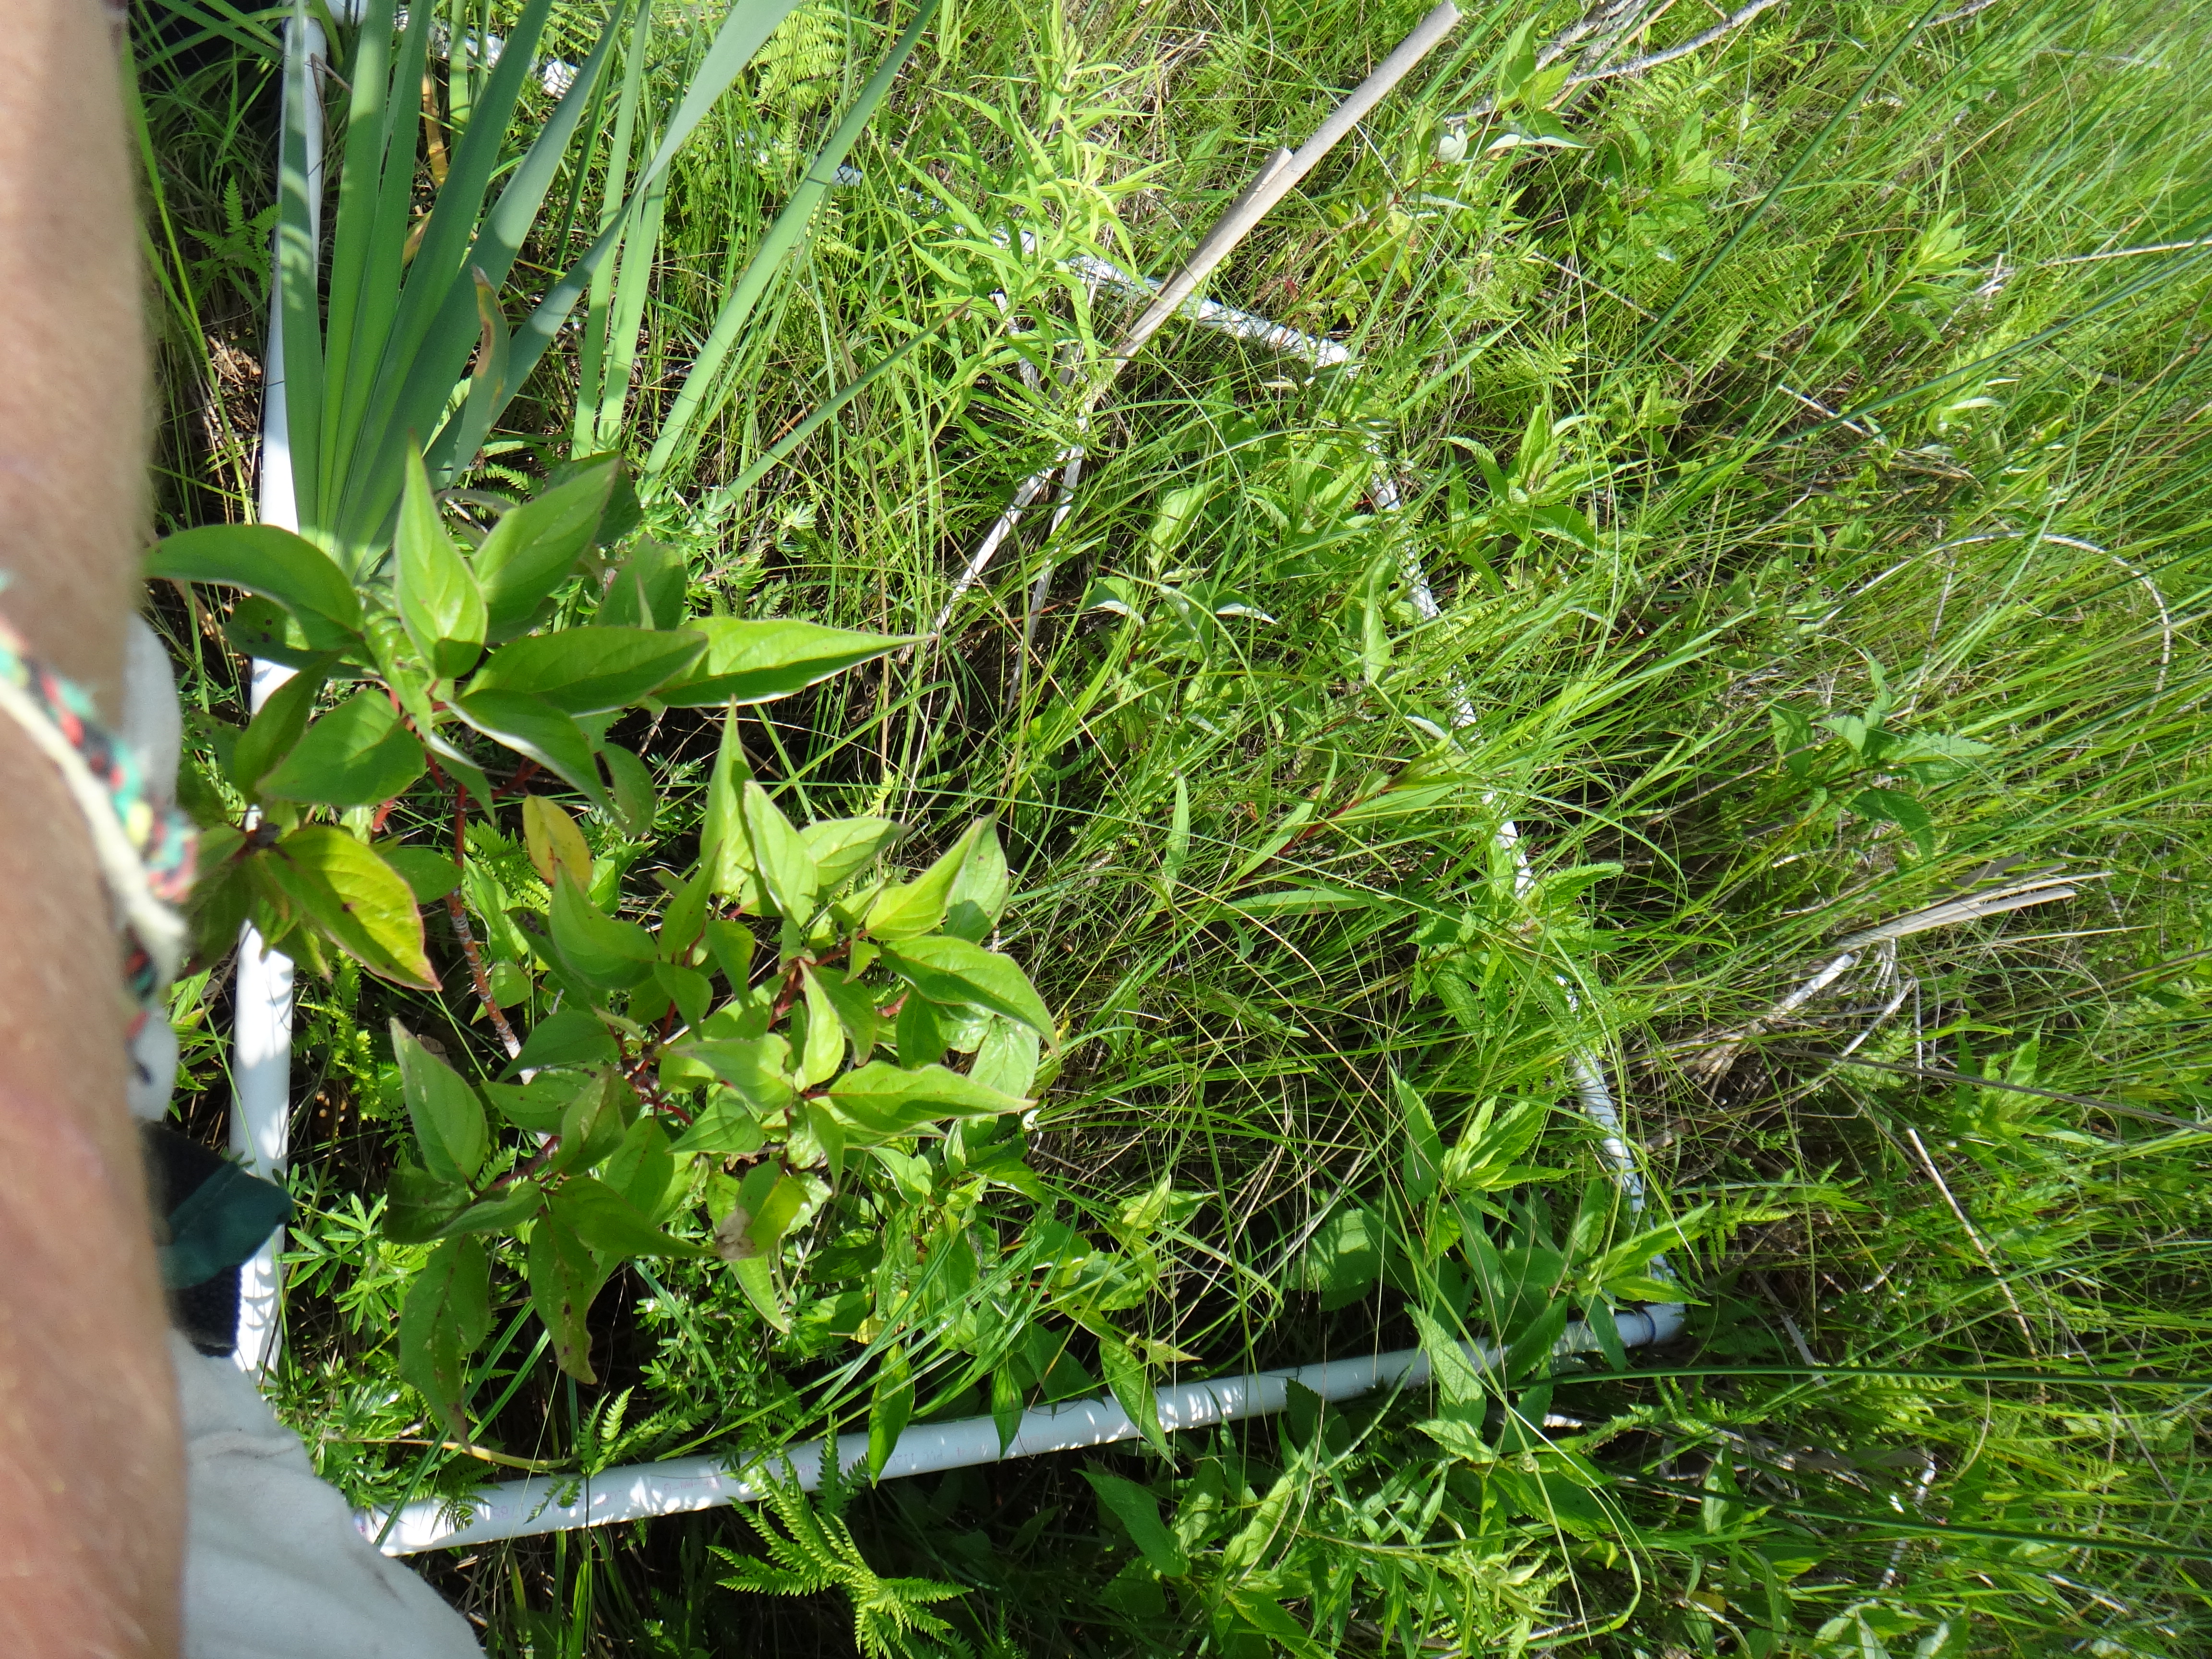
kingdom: Plantae
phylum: Tracheophyta
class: Magnoliopsida
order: Asterales
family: Asteraceae
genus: Solidago
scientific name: Solidago uliginosa
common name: Bog goldenrod
